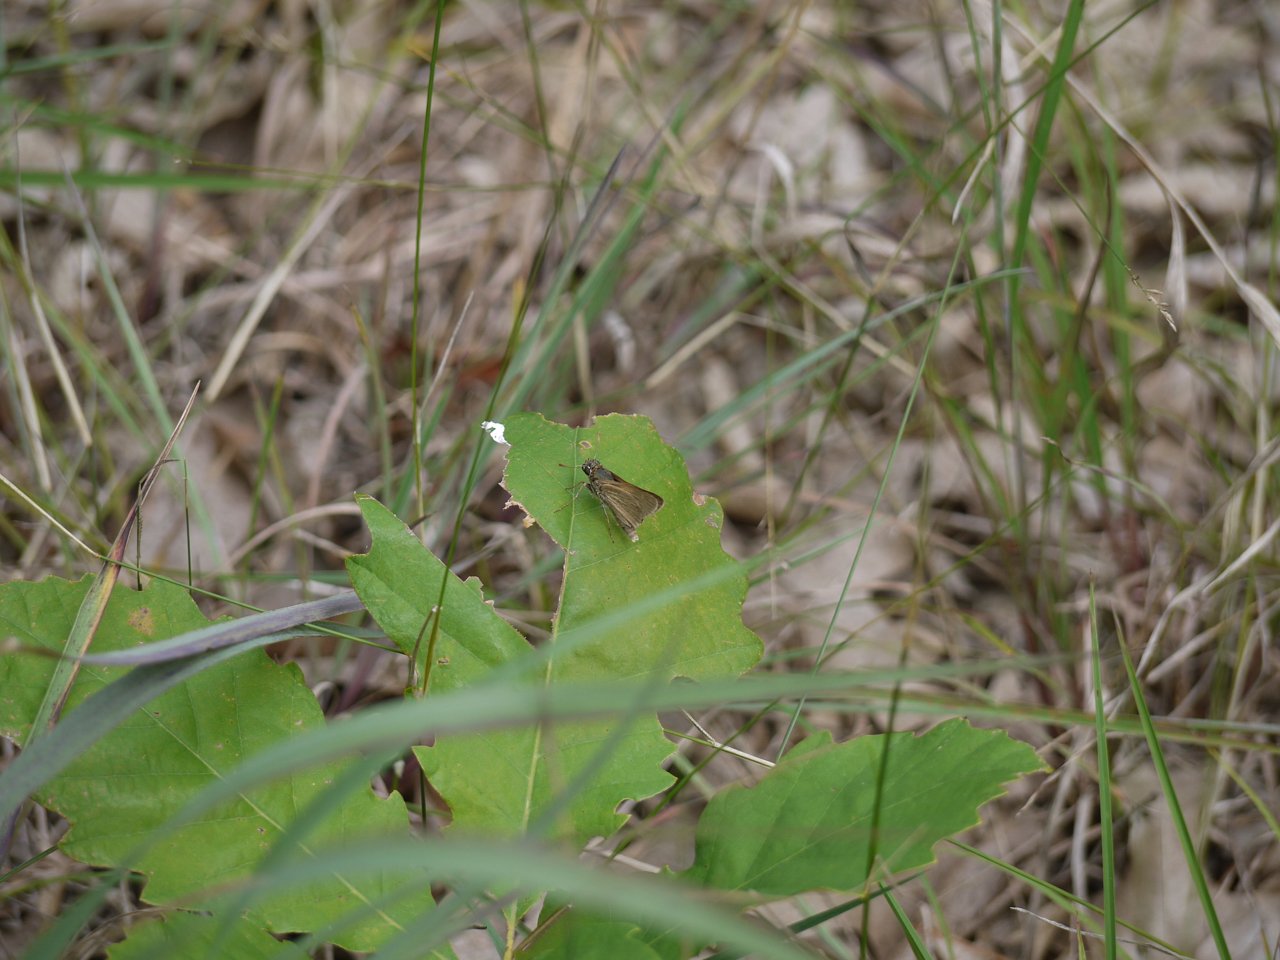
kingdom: Animalia
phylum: Arthropoda
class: Insecta
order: Lepidoptera
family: Hesperiidae
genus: Polites
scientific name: Polites themistocles
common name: Tawny-edged Skipper
